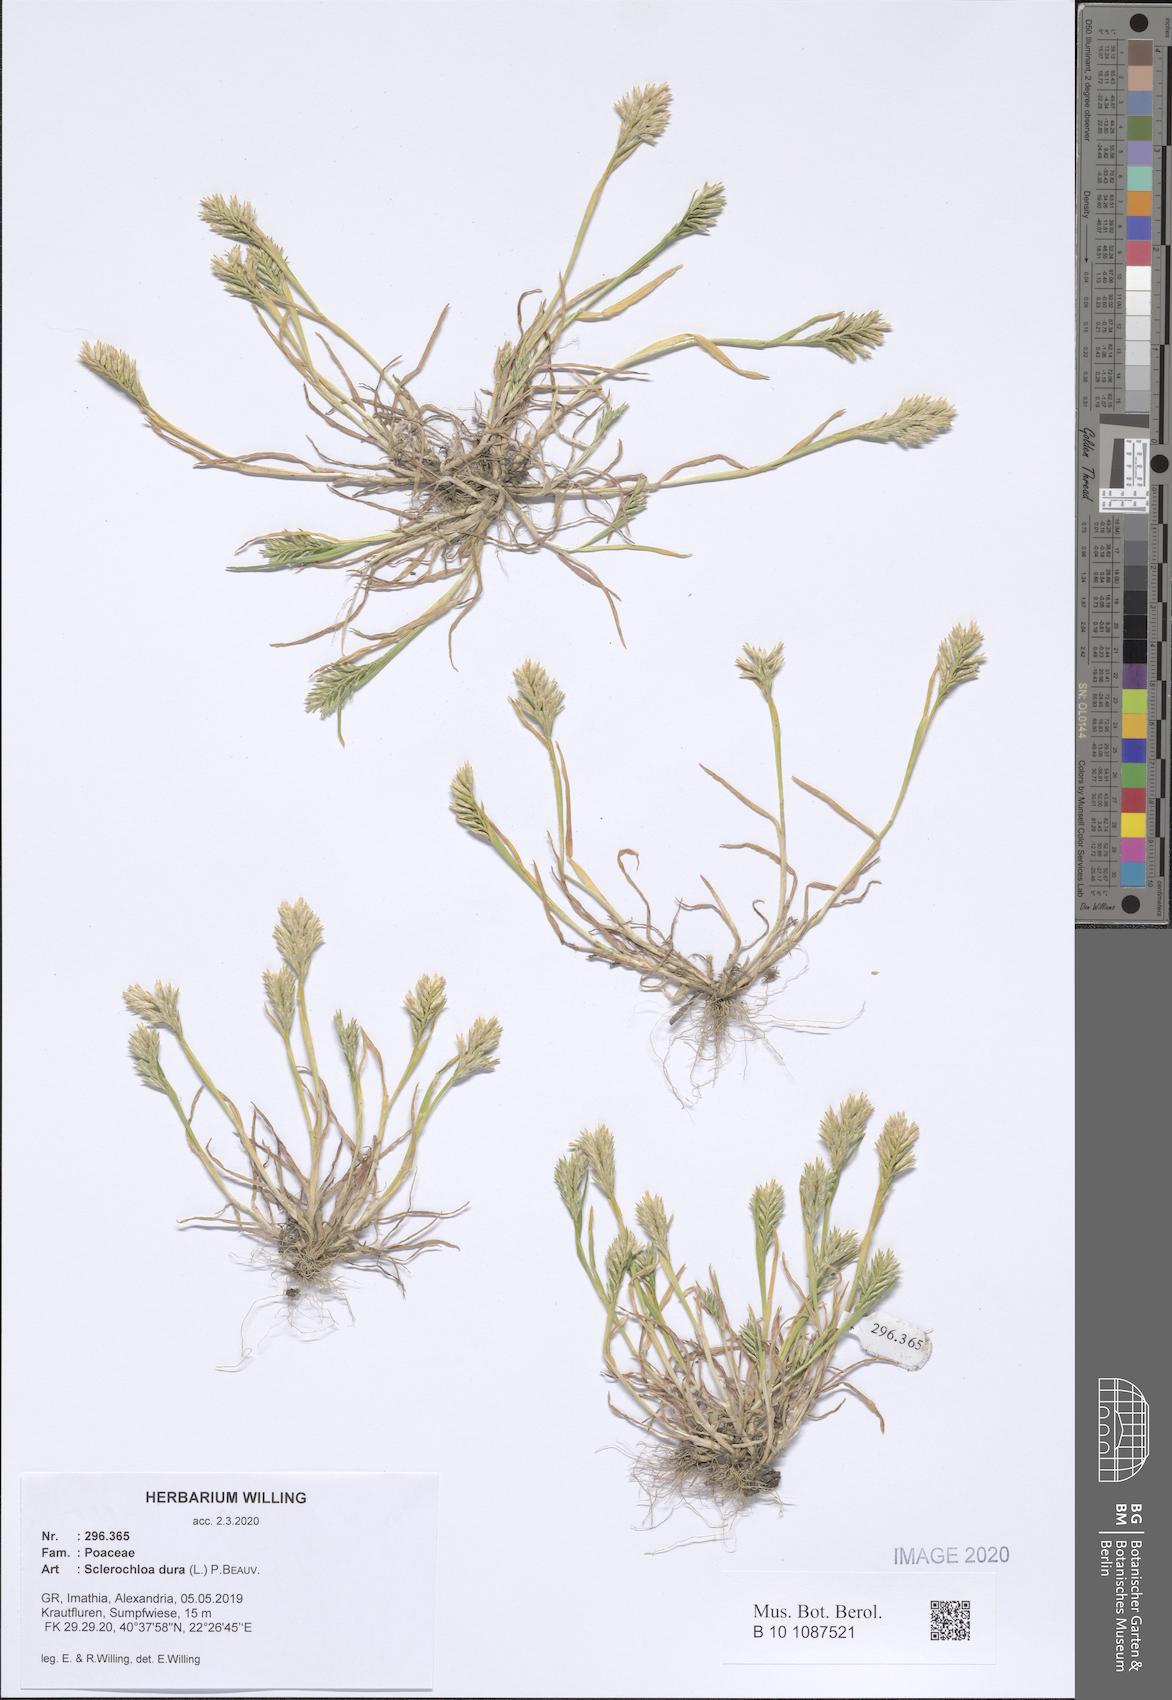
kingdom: Plantae
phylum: Tracheophyta
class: Liliopsida
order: Poales
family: Poaceae
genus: Sclerochloa
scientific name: Sclerochloa dura
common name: Common hardgrass
